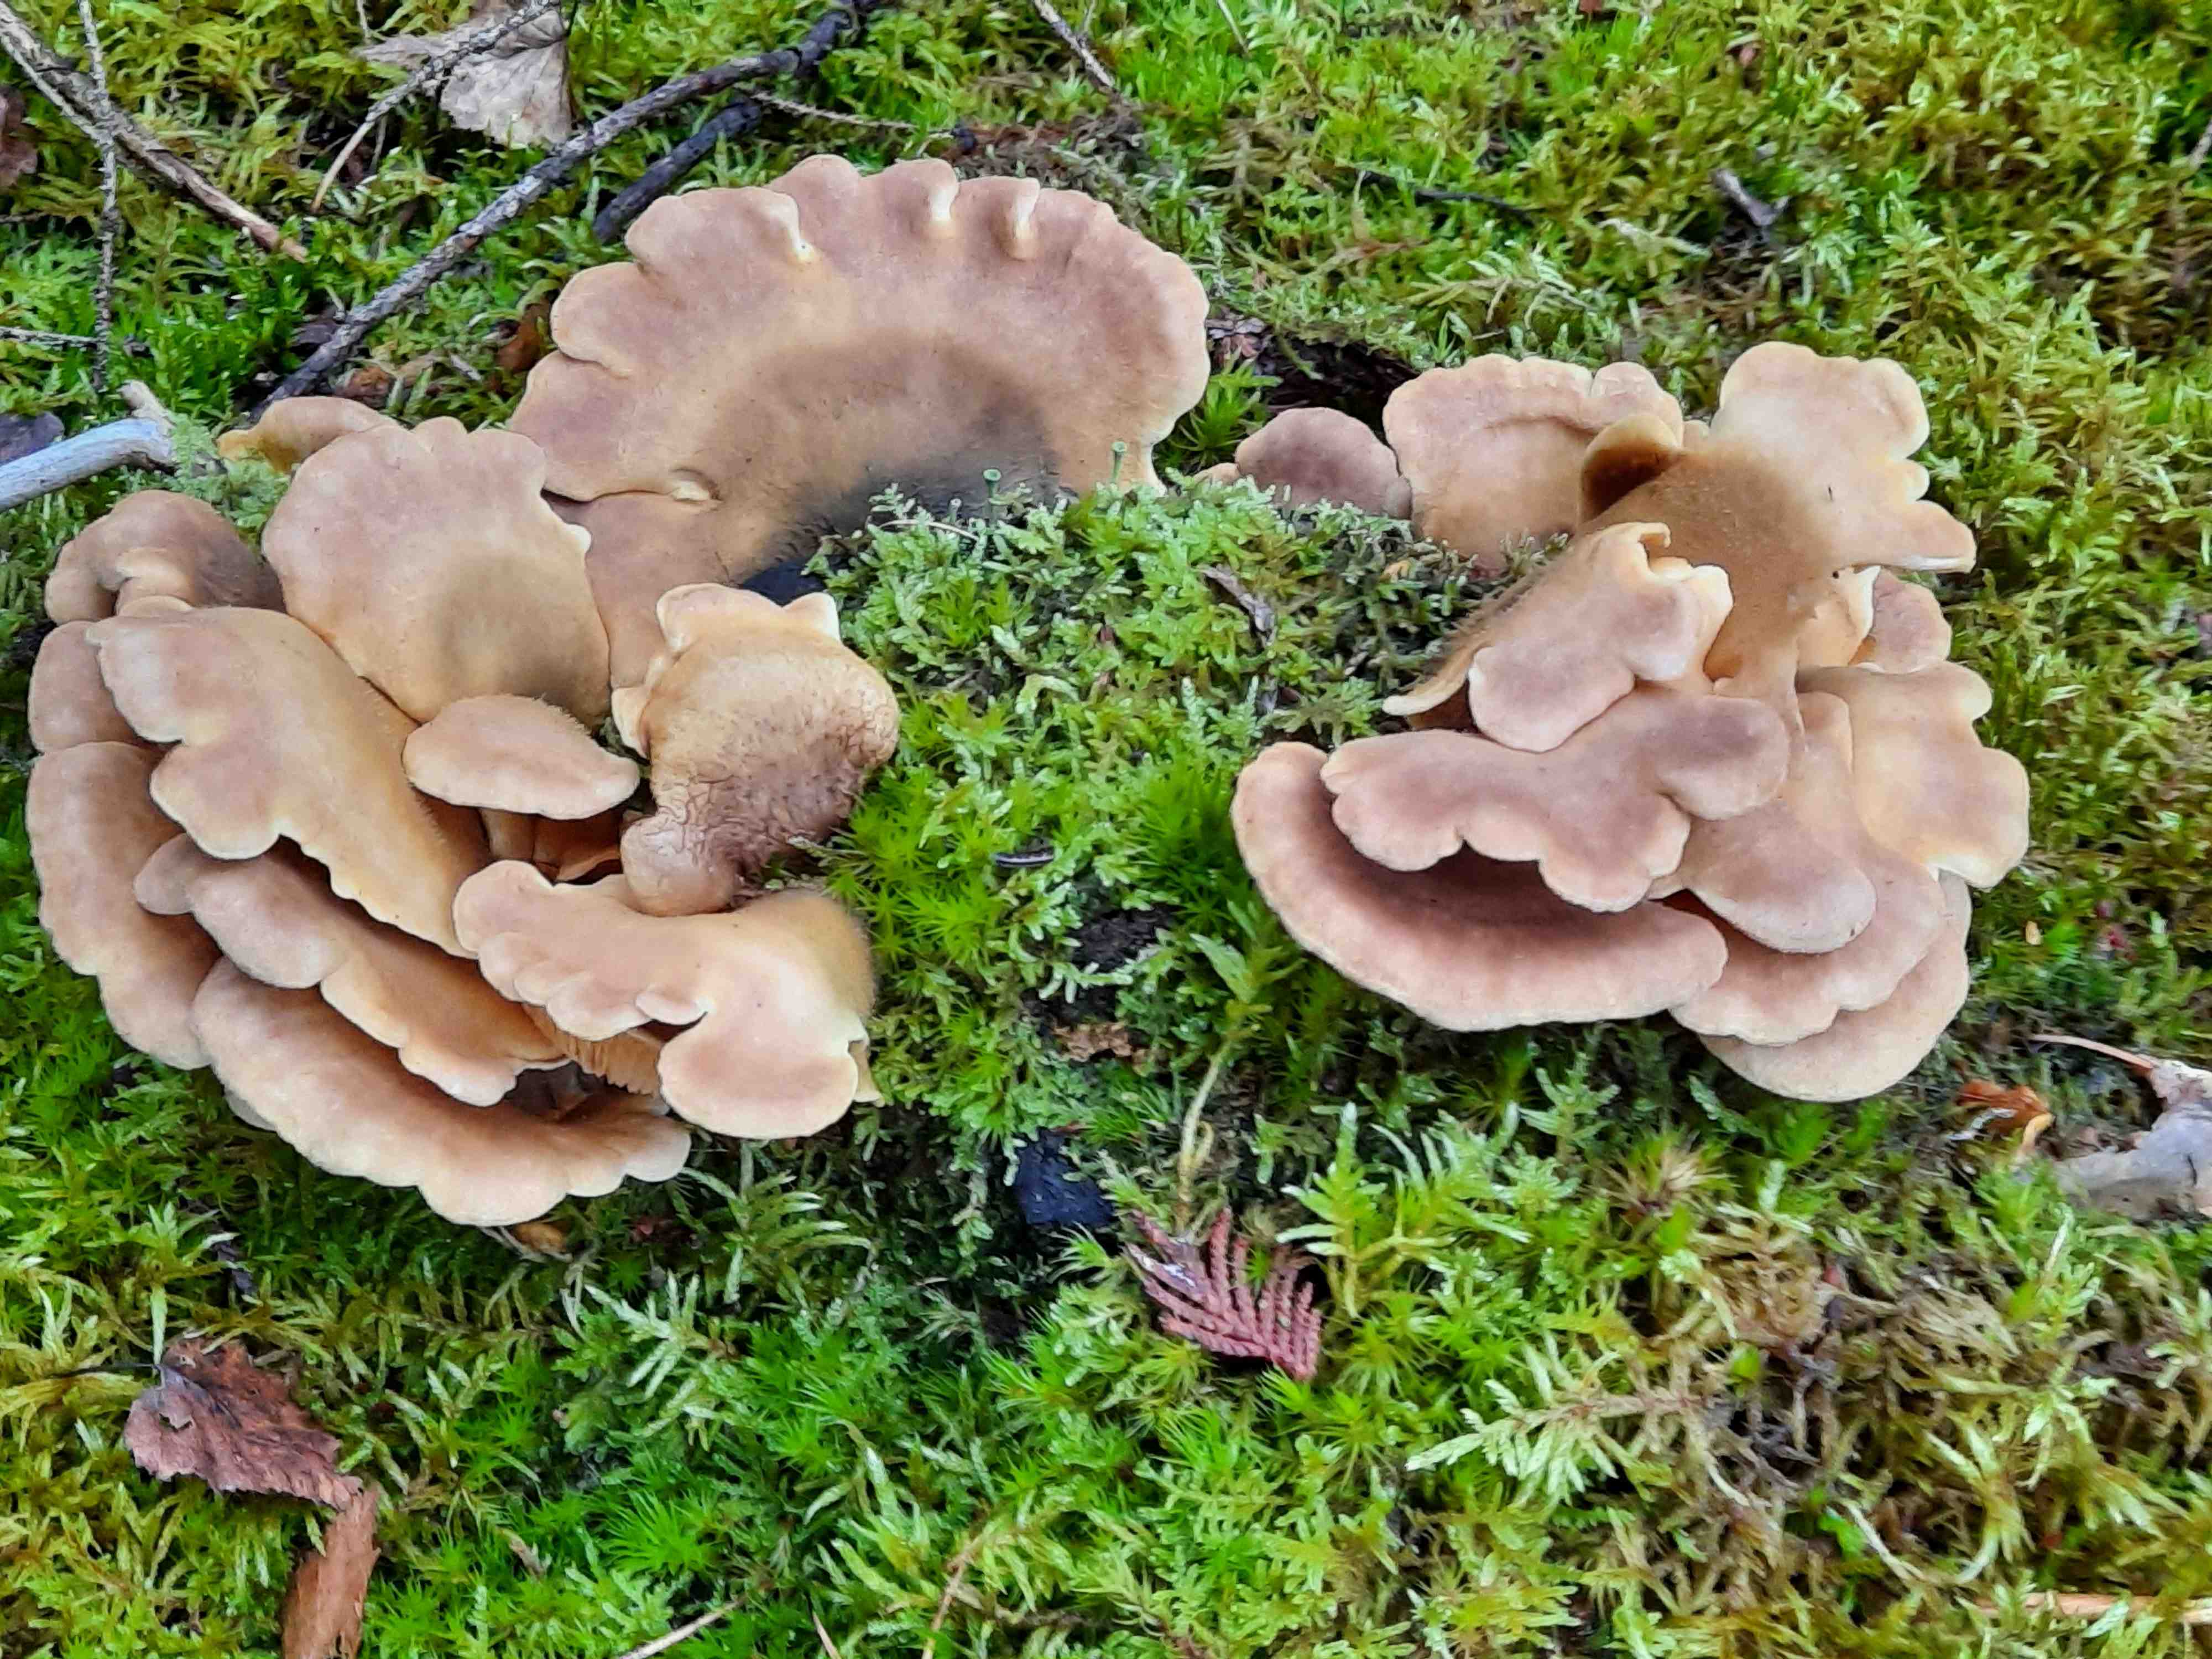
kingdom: Fungi
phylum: Basidiomycota
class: Agaricomycetes
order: Boletales
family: Tapinellaceae
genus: Tapinella
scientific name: Tapinella panuoides
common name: tømmer-viftesvamp
